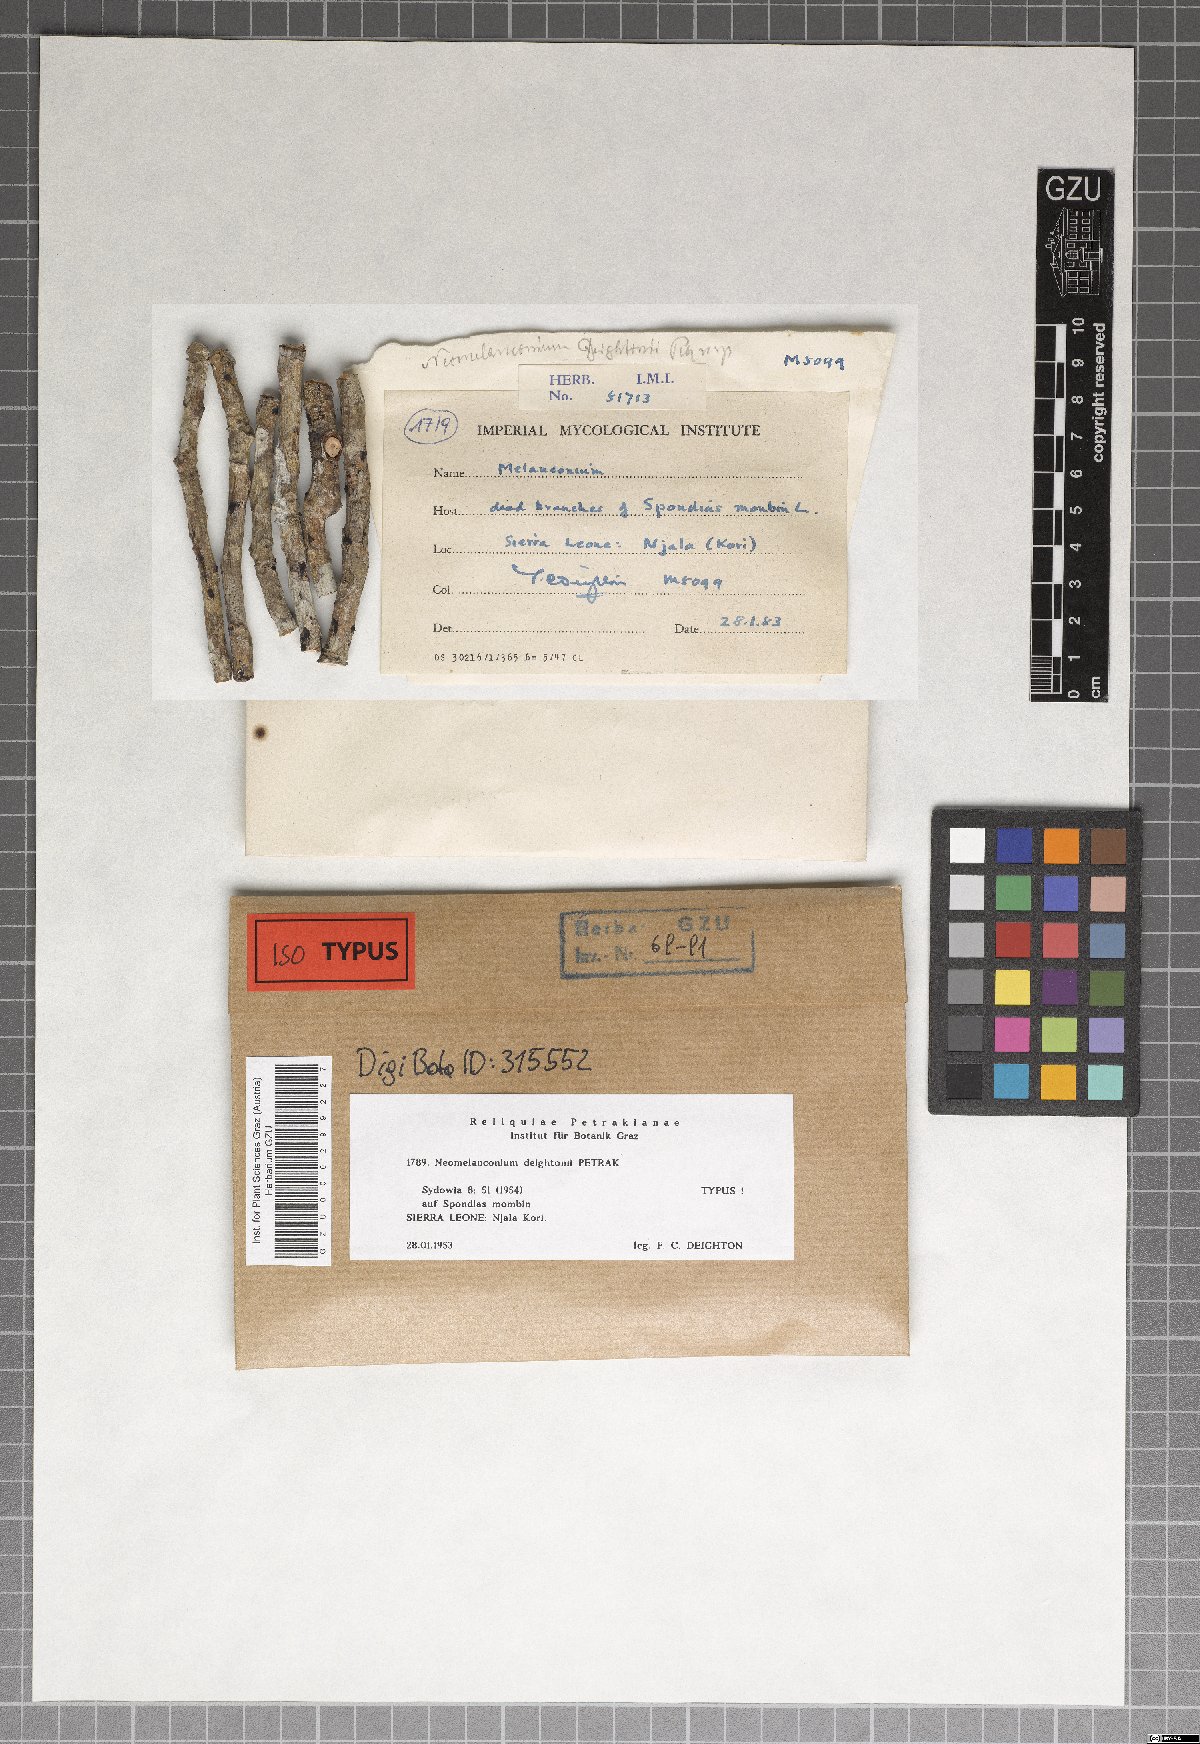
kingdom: Fungi
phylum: Ascomycota
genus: Neomelanconium
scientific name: Neomelanconium deightonii
